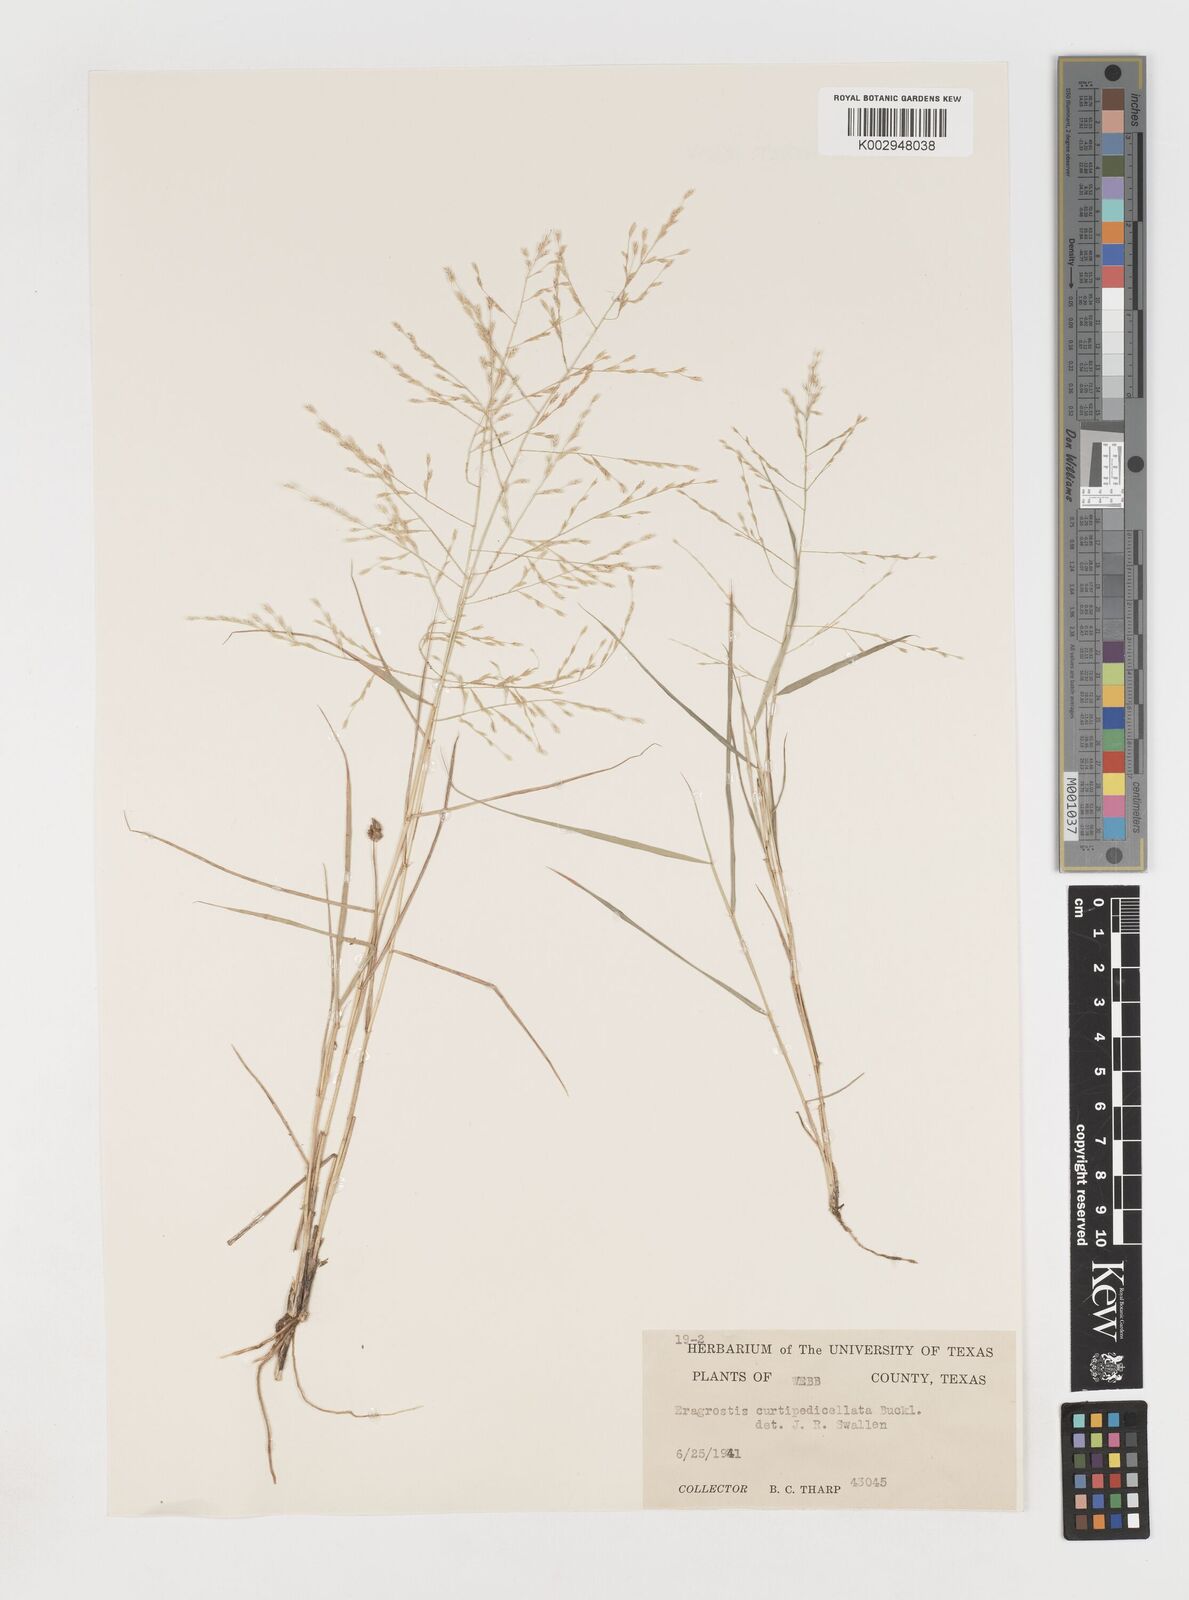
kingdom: Plantae
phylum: Tracheophyta
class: Liliopsida
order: Poales
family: Poaceae
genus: Eragrostis
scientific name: Eragrostis curtipedicellata
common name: Gummy love grass
